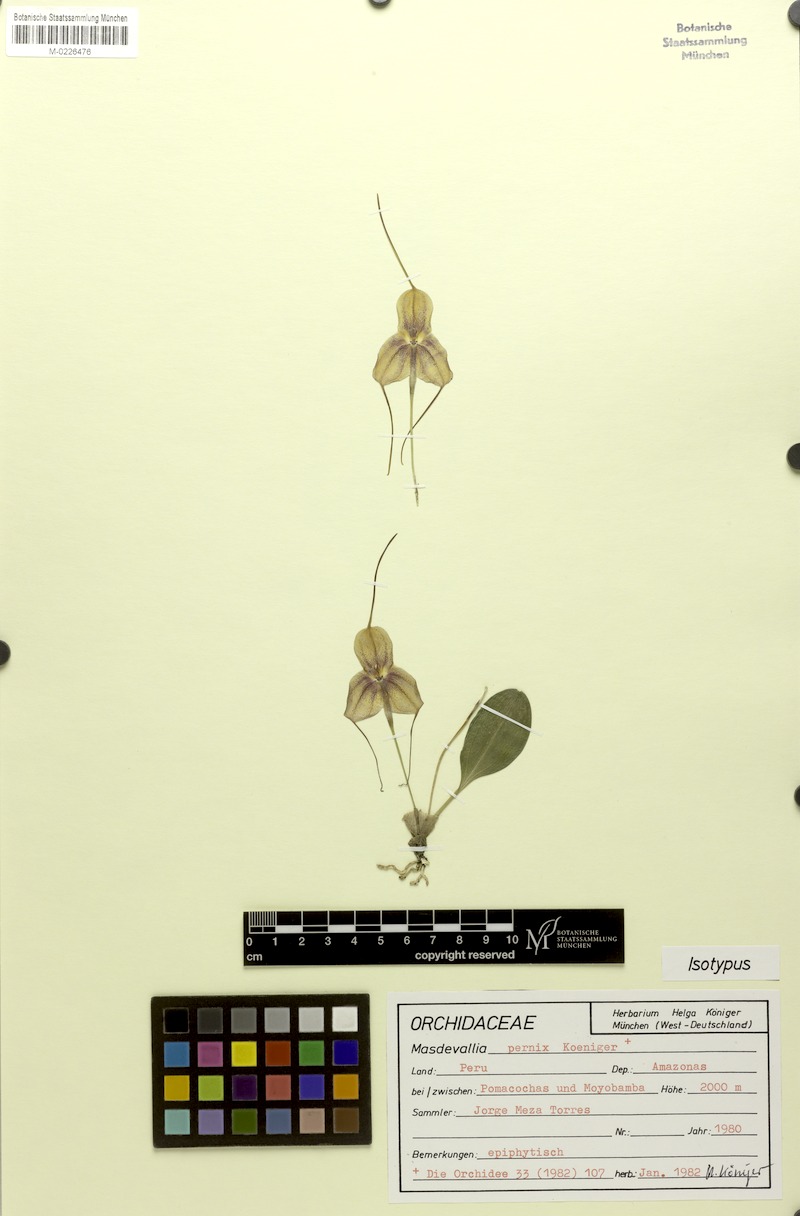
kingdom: Plantae
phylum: Tracheophyta
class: Liliopsida
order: Asparagales
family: Orchidaceae
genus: Masdevallia
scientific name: Masdevallia pernix
